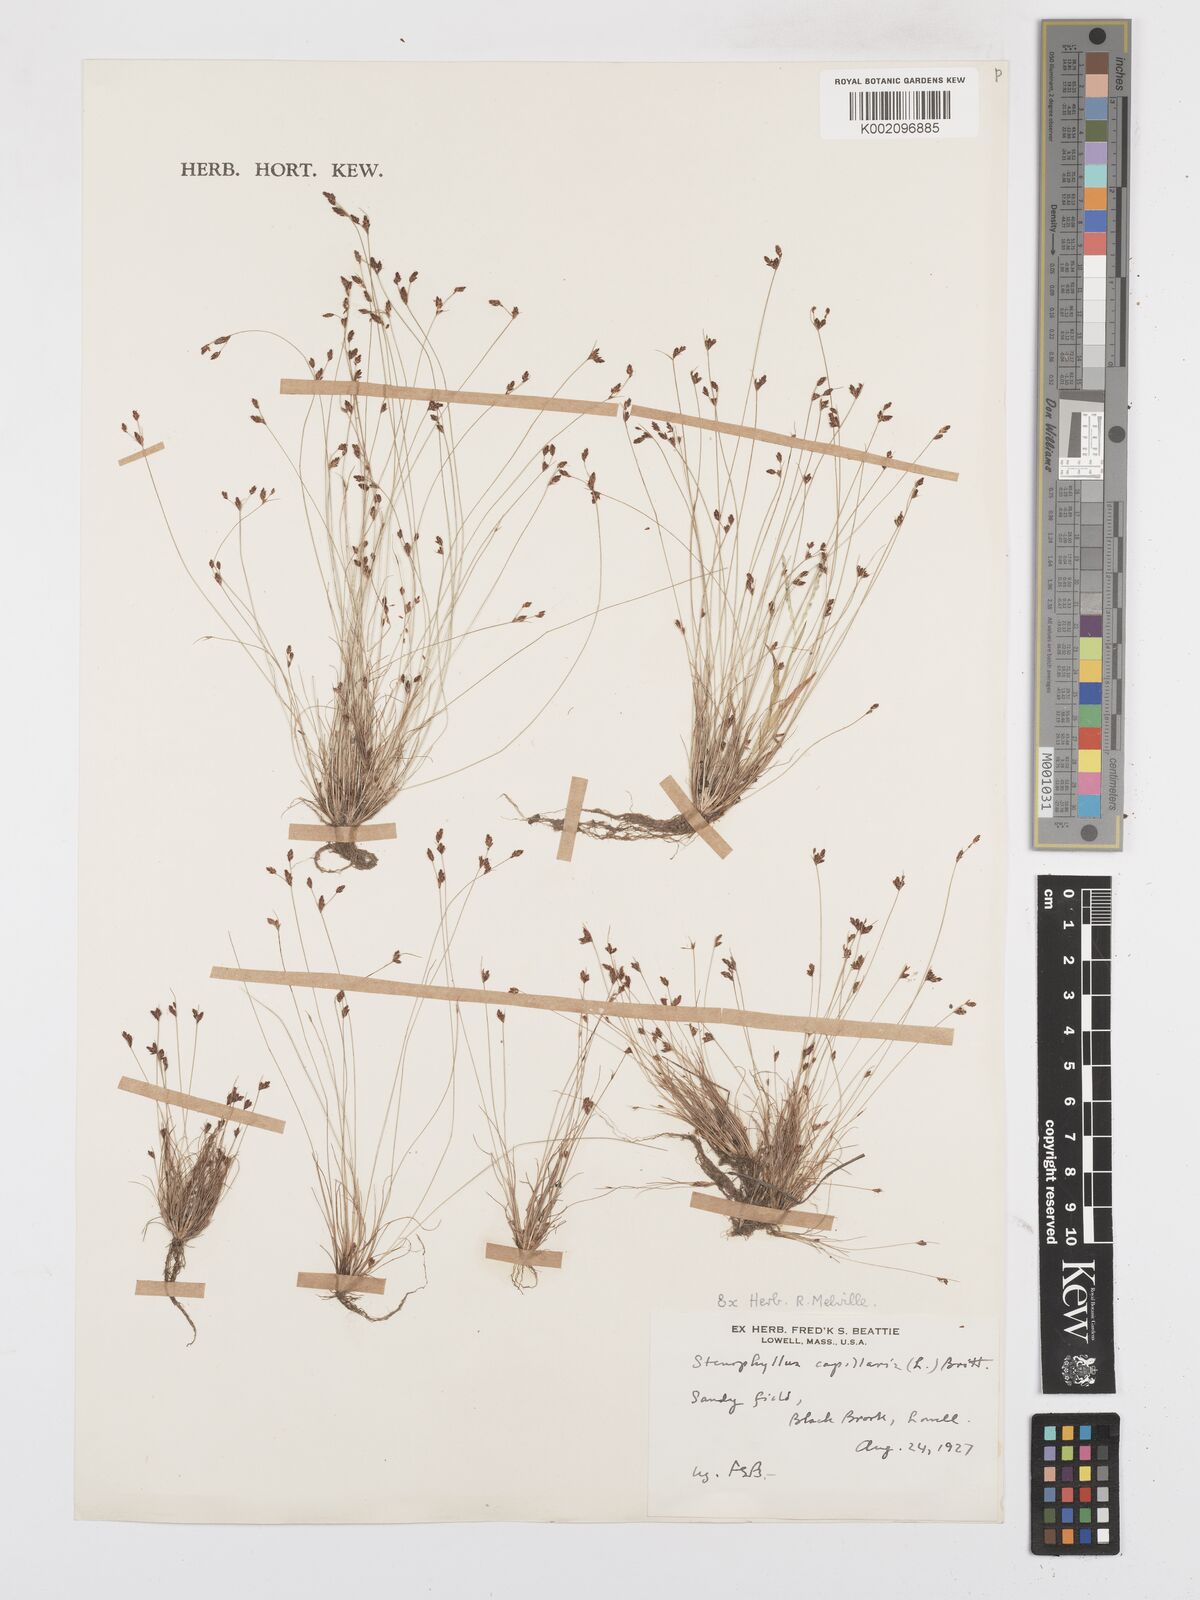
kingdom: Plantae
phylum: Tracheophyta
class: Liliopsida
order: Poales
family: Cyperaceae
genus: Bulbostylis
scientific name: Bulbostylis capillaris
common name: Densetuft hairsedge
